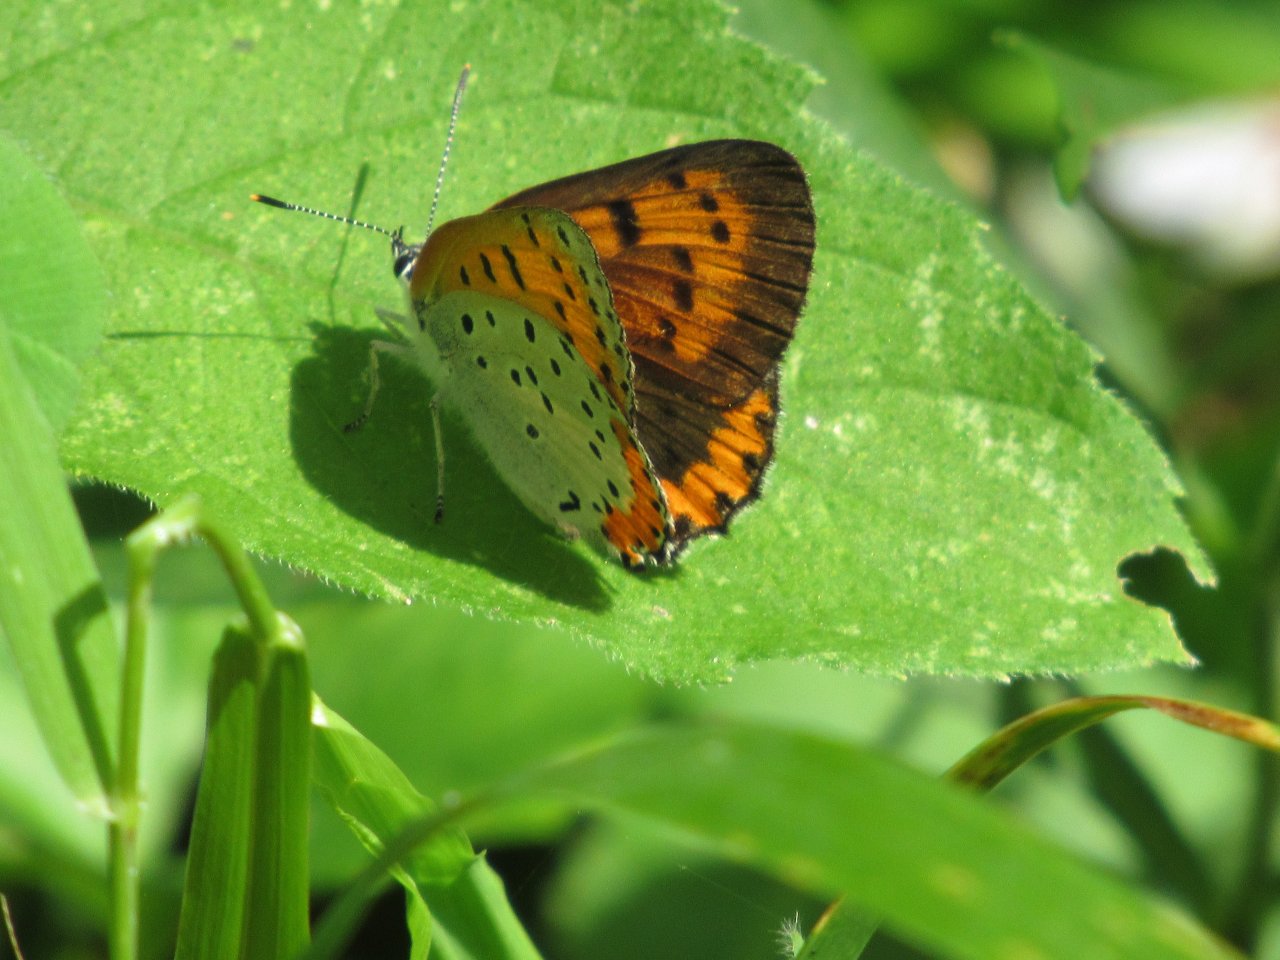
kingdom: Animalia
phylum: Arthropoda
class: Insecta
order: Lepidoptera
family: Sesiidae
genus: Sesia
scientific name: Sesia Lycaena hyllus
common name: Bronze Copper
